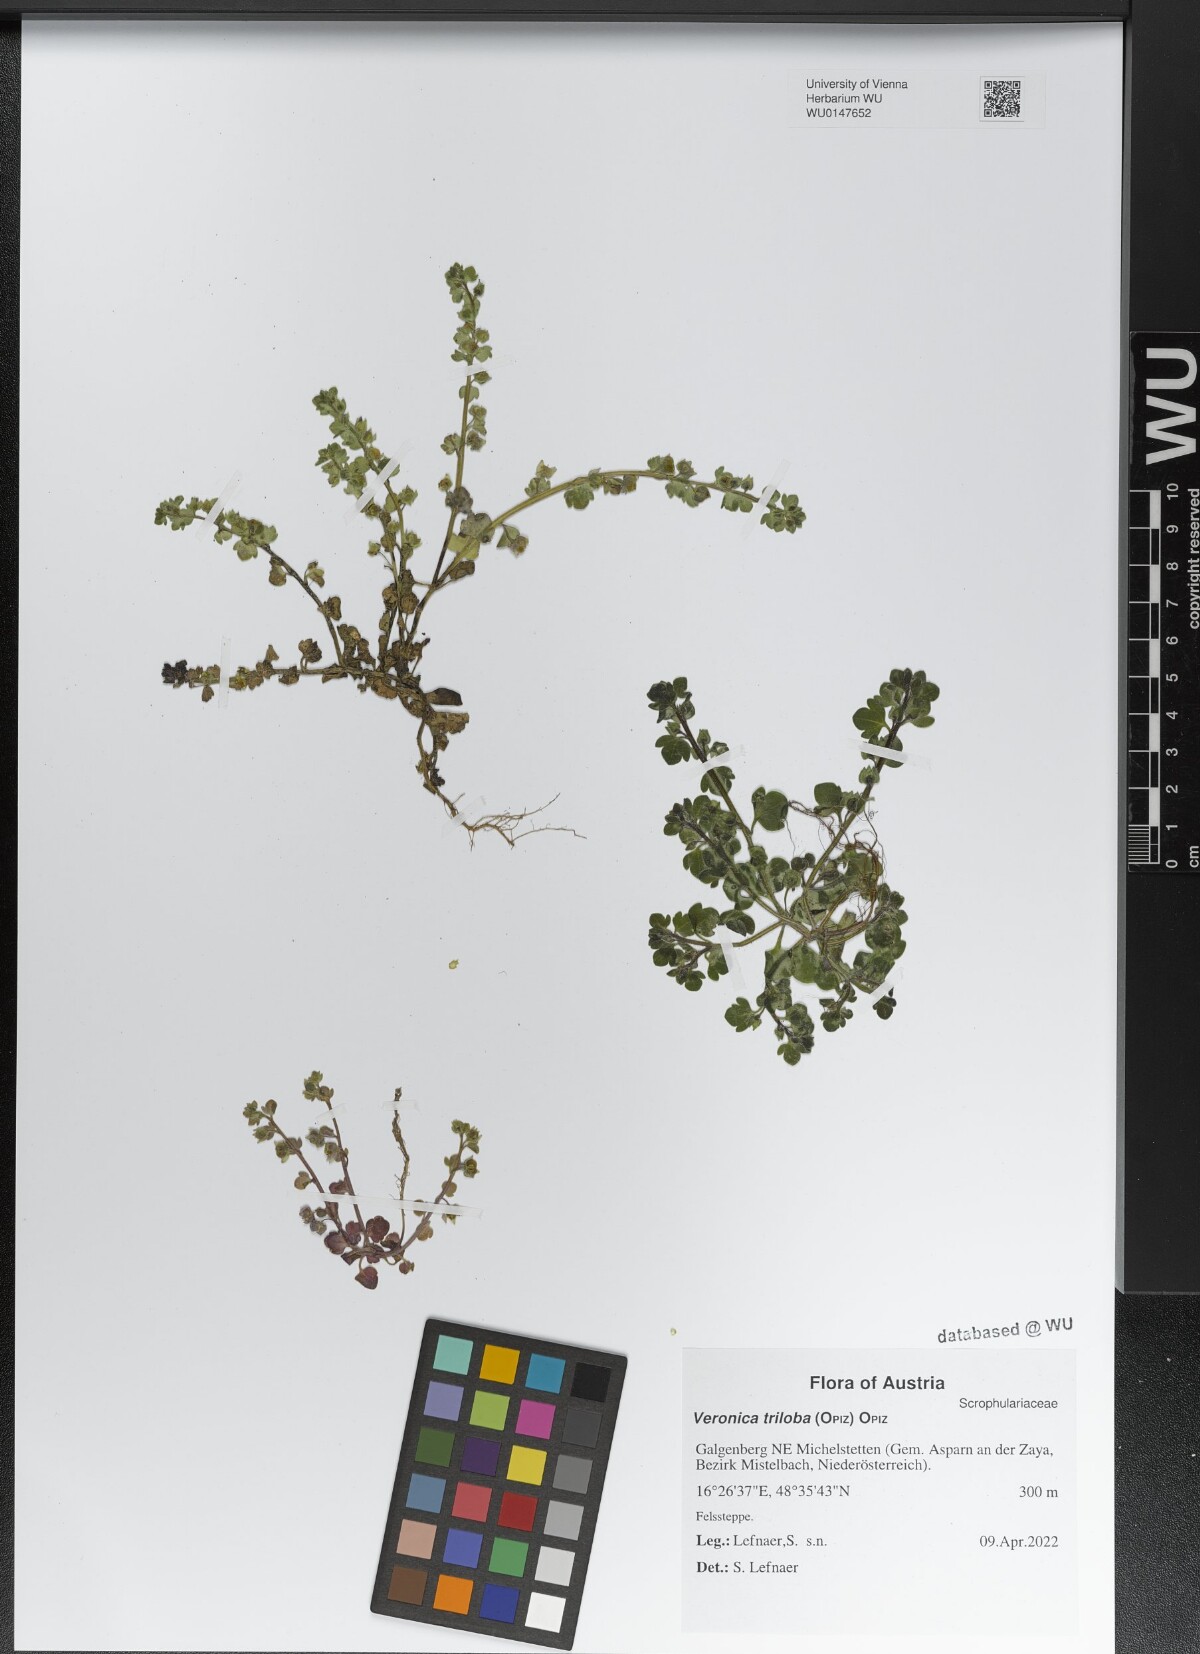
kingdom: Plantae
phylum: Tracheophyta
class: Magnoliopsida
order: Lamiales
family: Plantaginaceae
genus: Veronica
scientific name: Veronica triloba
